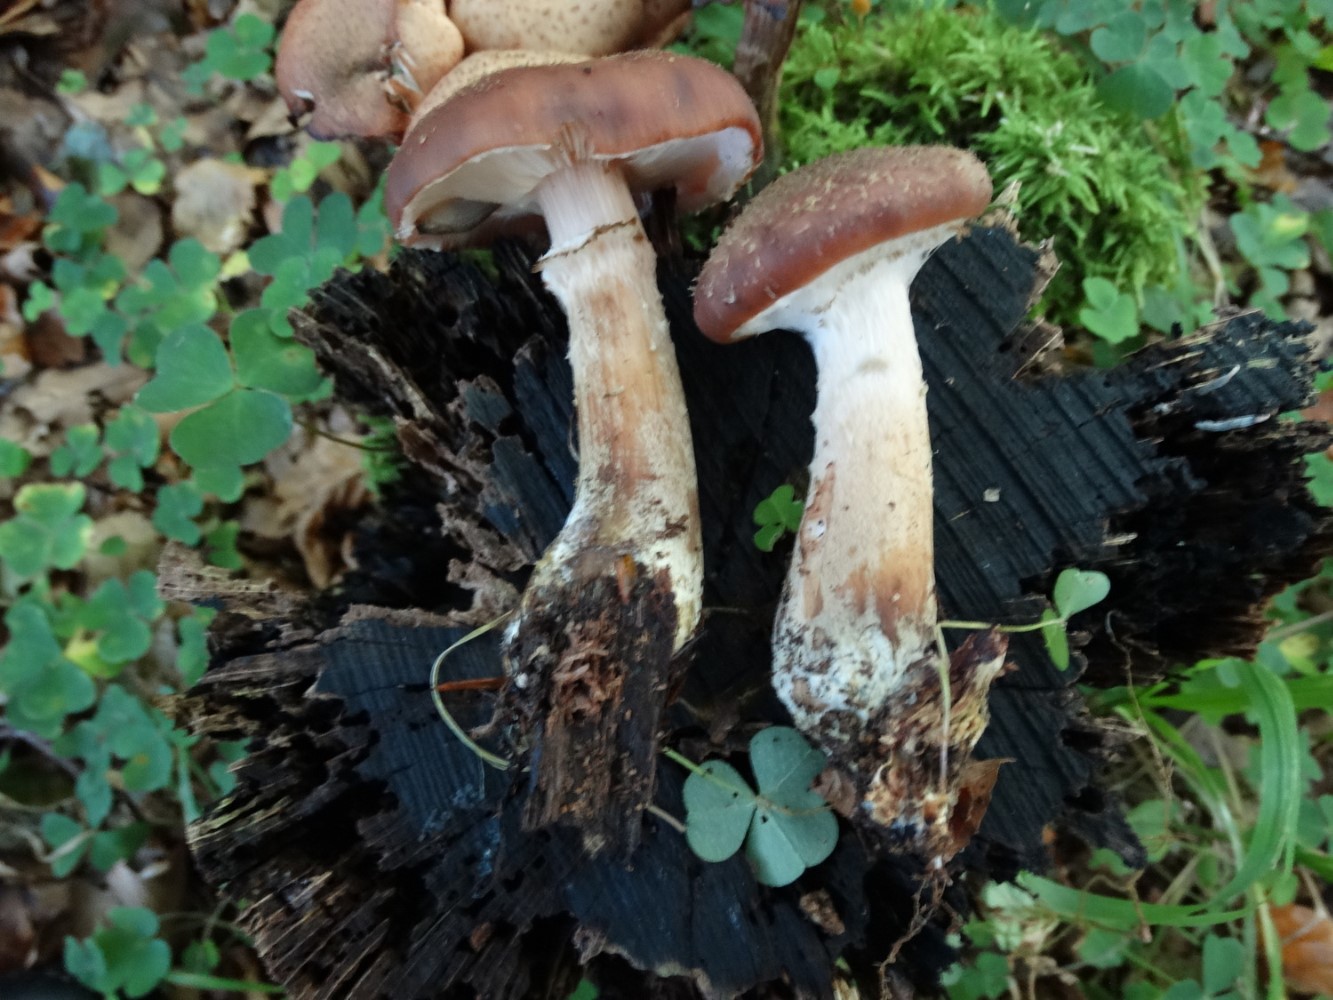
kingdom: Fungi
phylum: Basidiomycota
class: Agaricomycetes
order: Agaricales
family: Physalacriaceae
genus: Armillaria
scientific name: Armillaria lutea
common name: køllestokket honningsvamp
